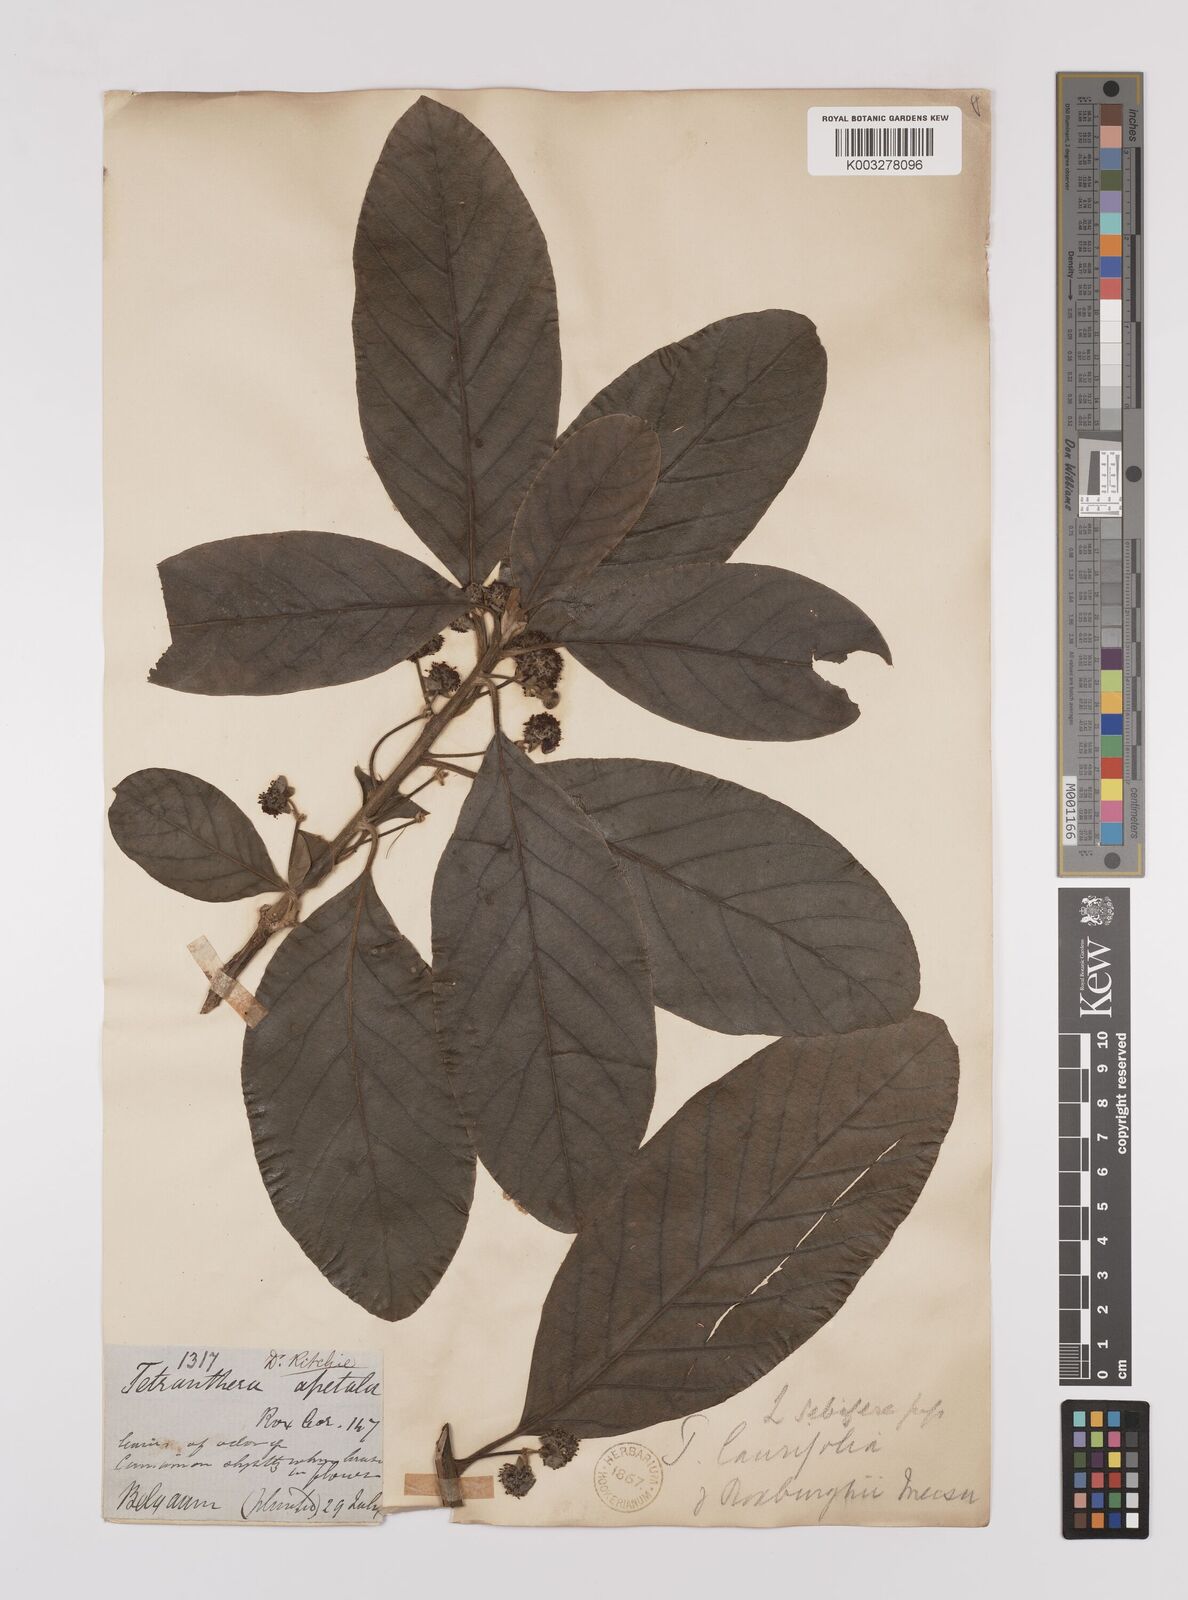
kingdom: Plantae
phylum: Tracheophyta
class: Magnoliopsida
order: Laurales
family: Lauraceae
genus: Litsea
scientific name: Litsea
